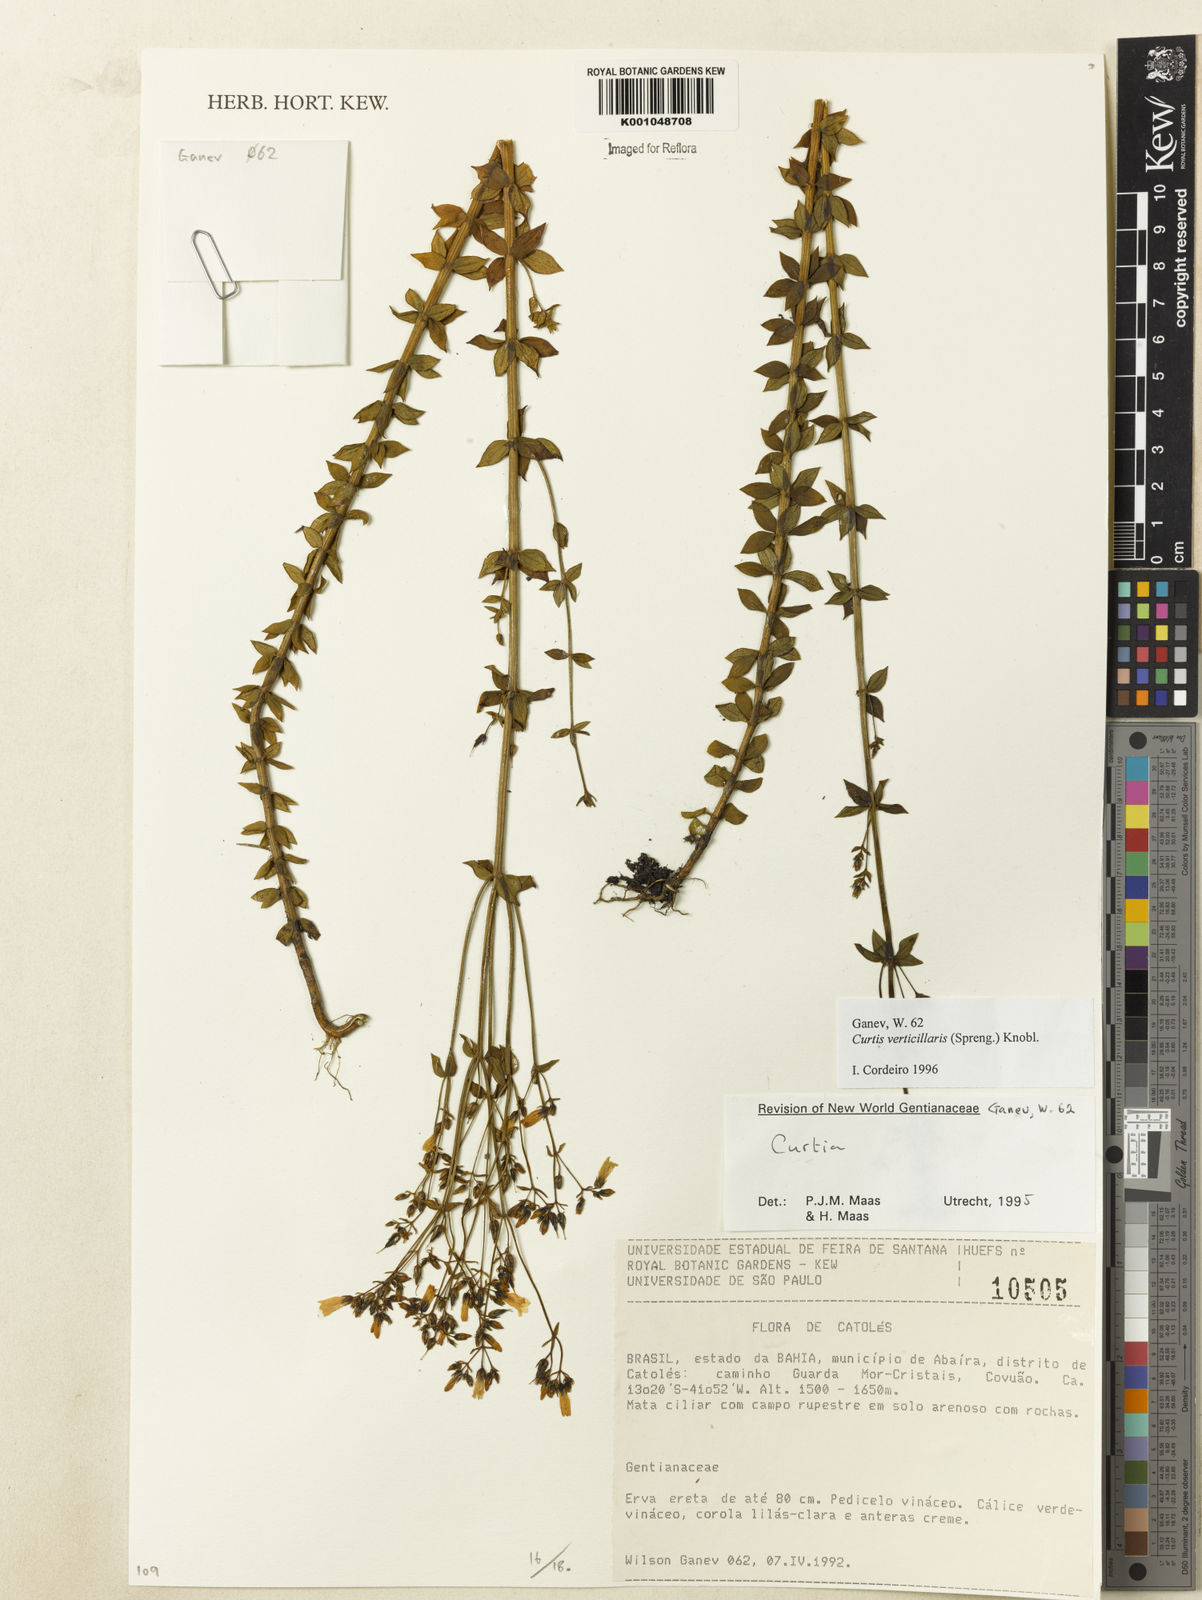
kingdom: Plantae
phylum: Tracheophyta
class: Magnoliopsida
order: Gentianales
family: Gentianaceae
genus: Curtia
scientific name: Curtia verticillaris
